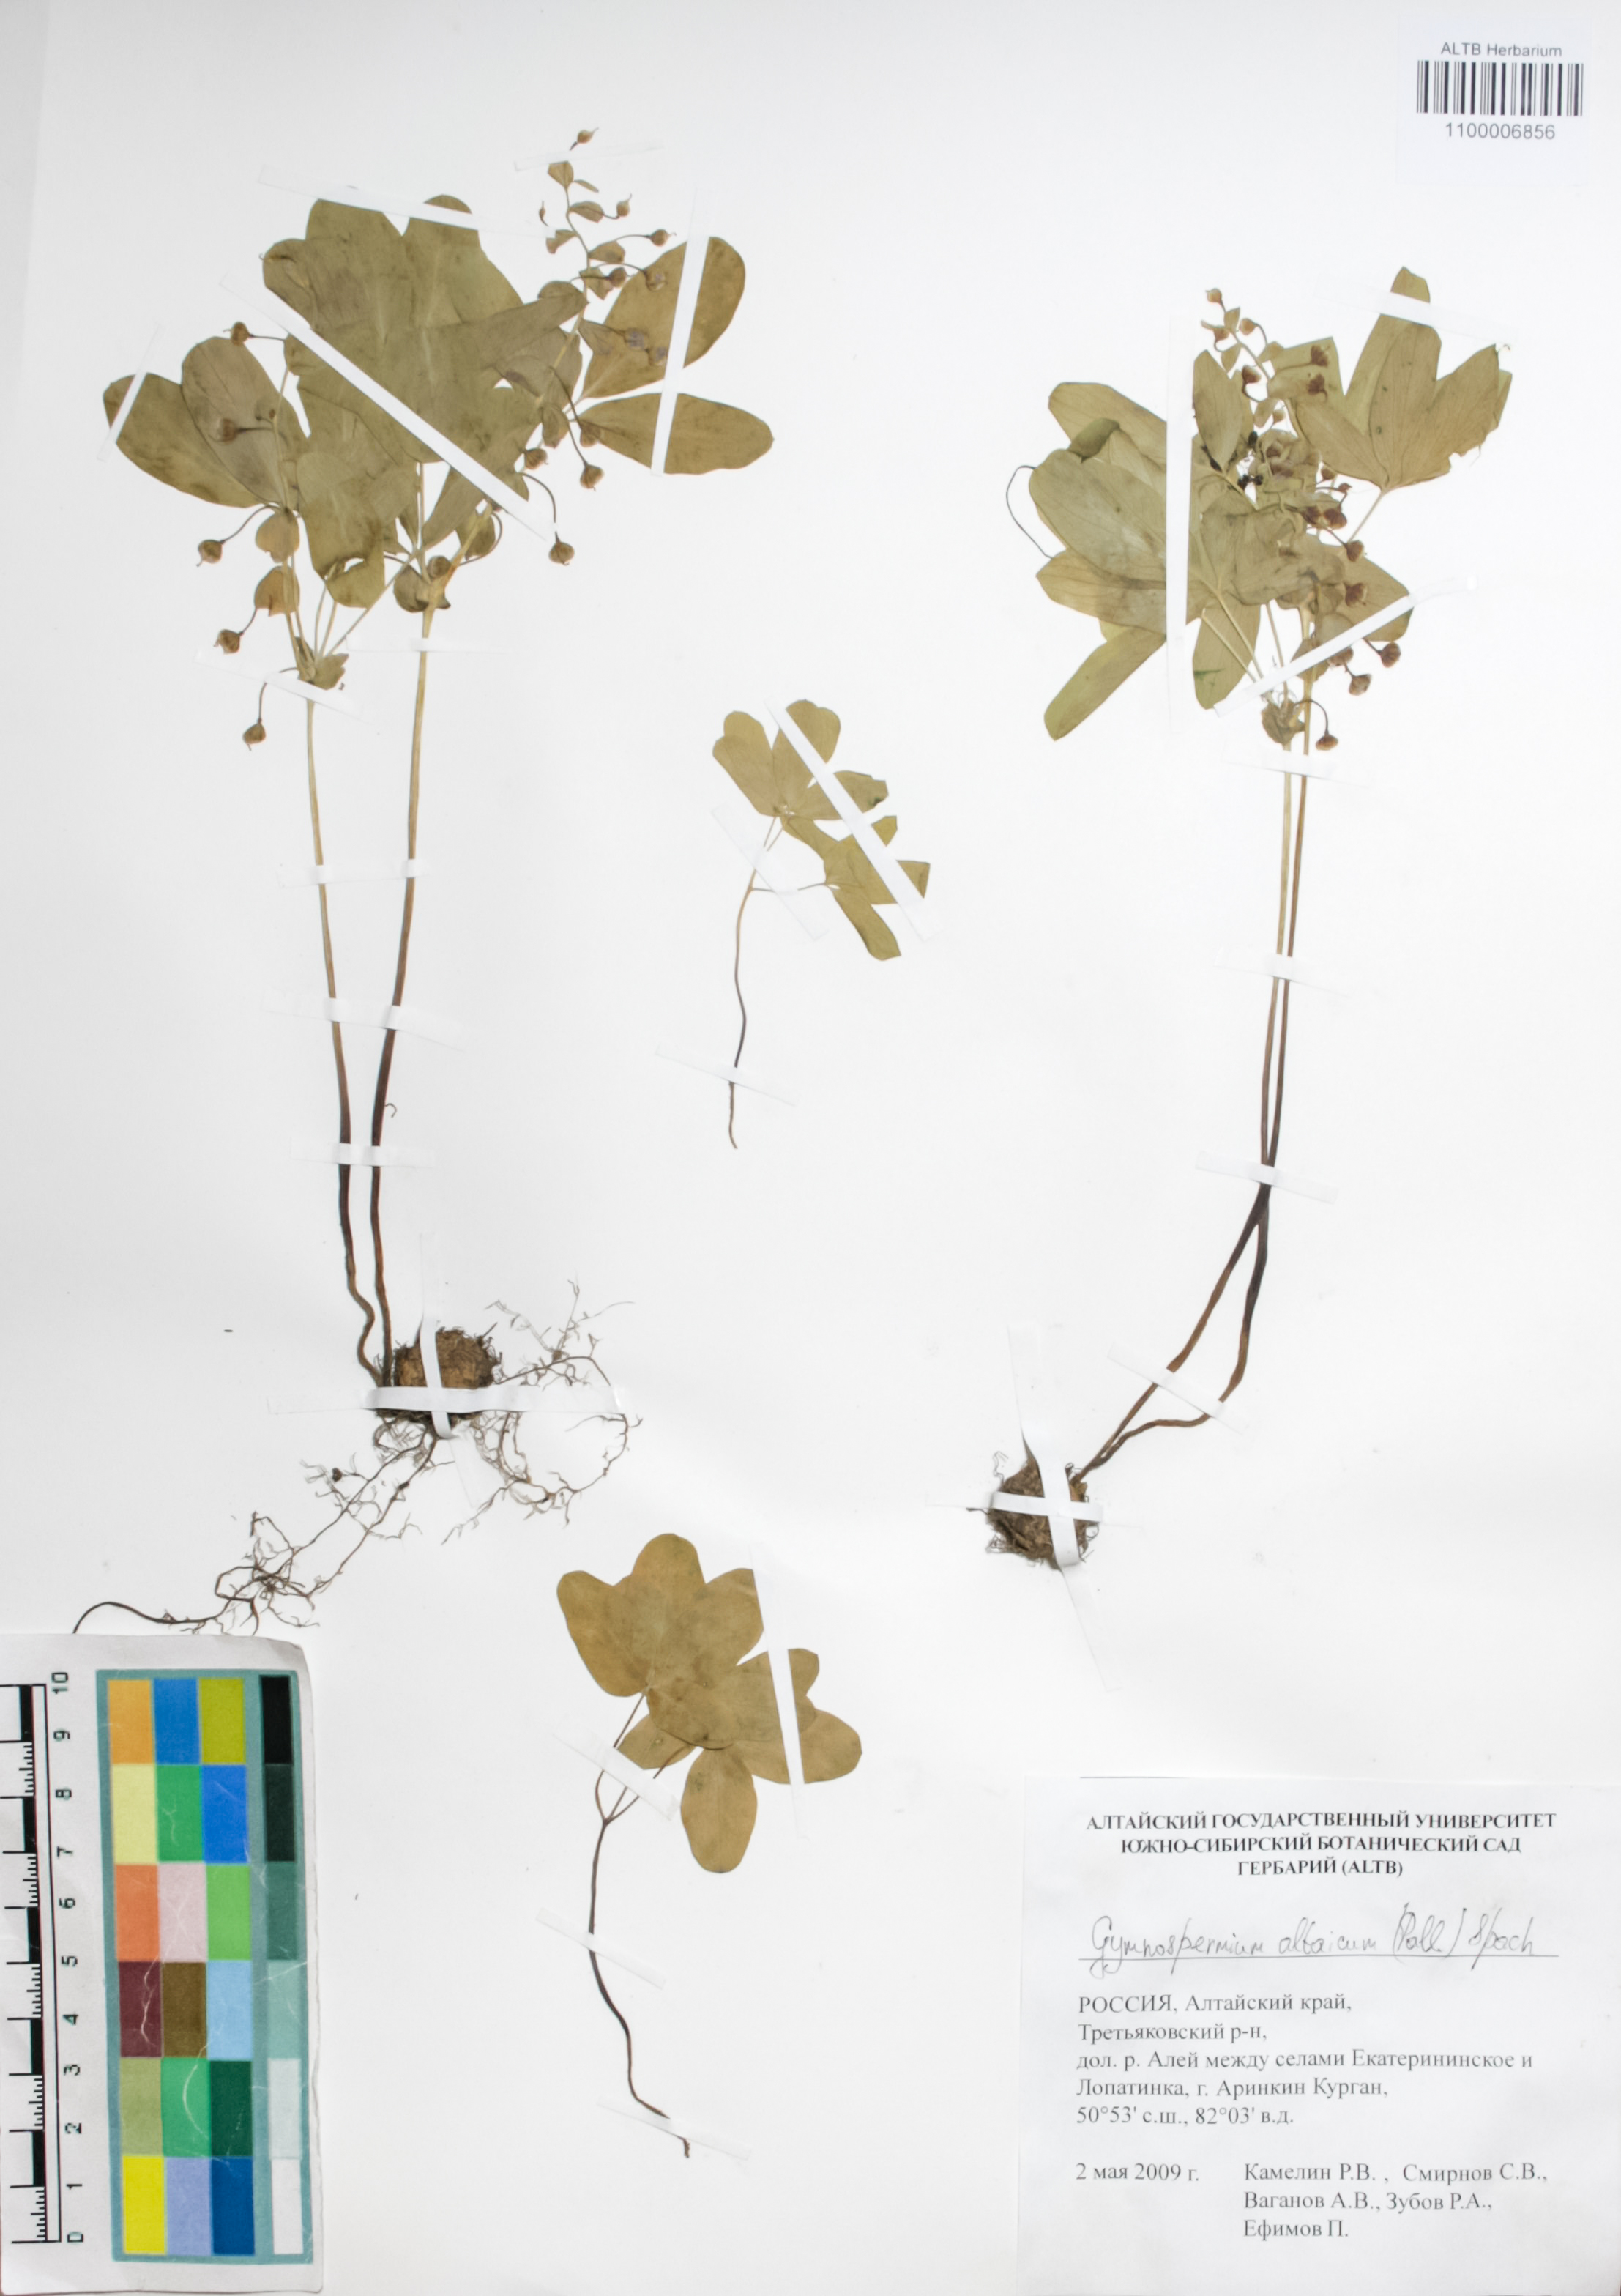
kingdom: Plantae
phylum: Tracheophyta
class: Magnoliopsida
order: Ranunculales
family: Berberidaceae
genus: Gymnospermium
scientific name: Gymnospermium altaicum
